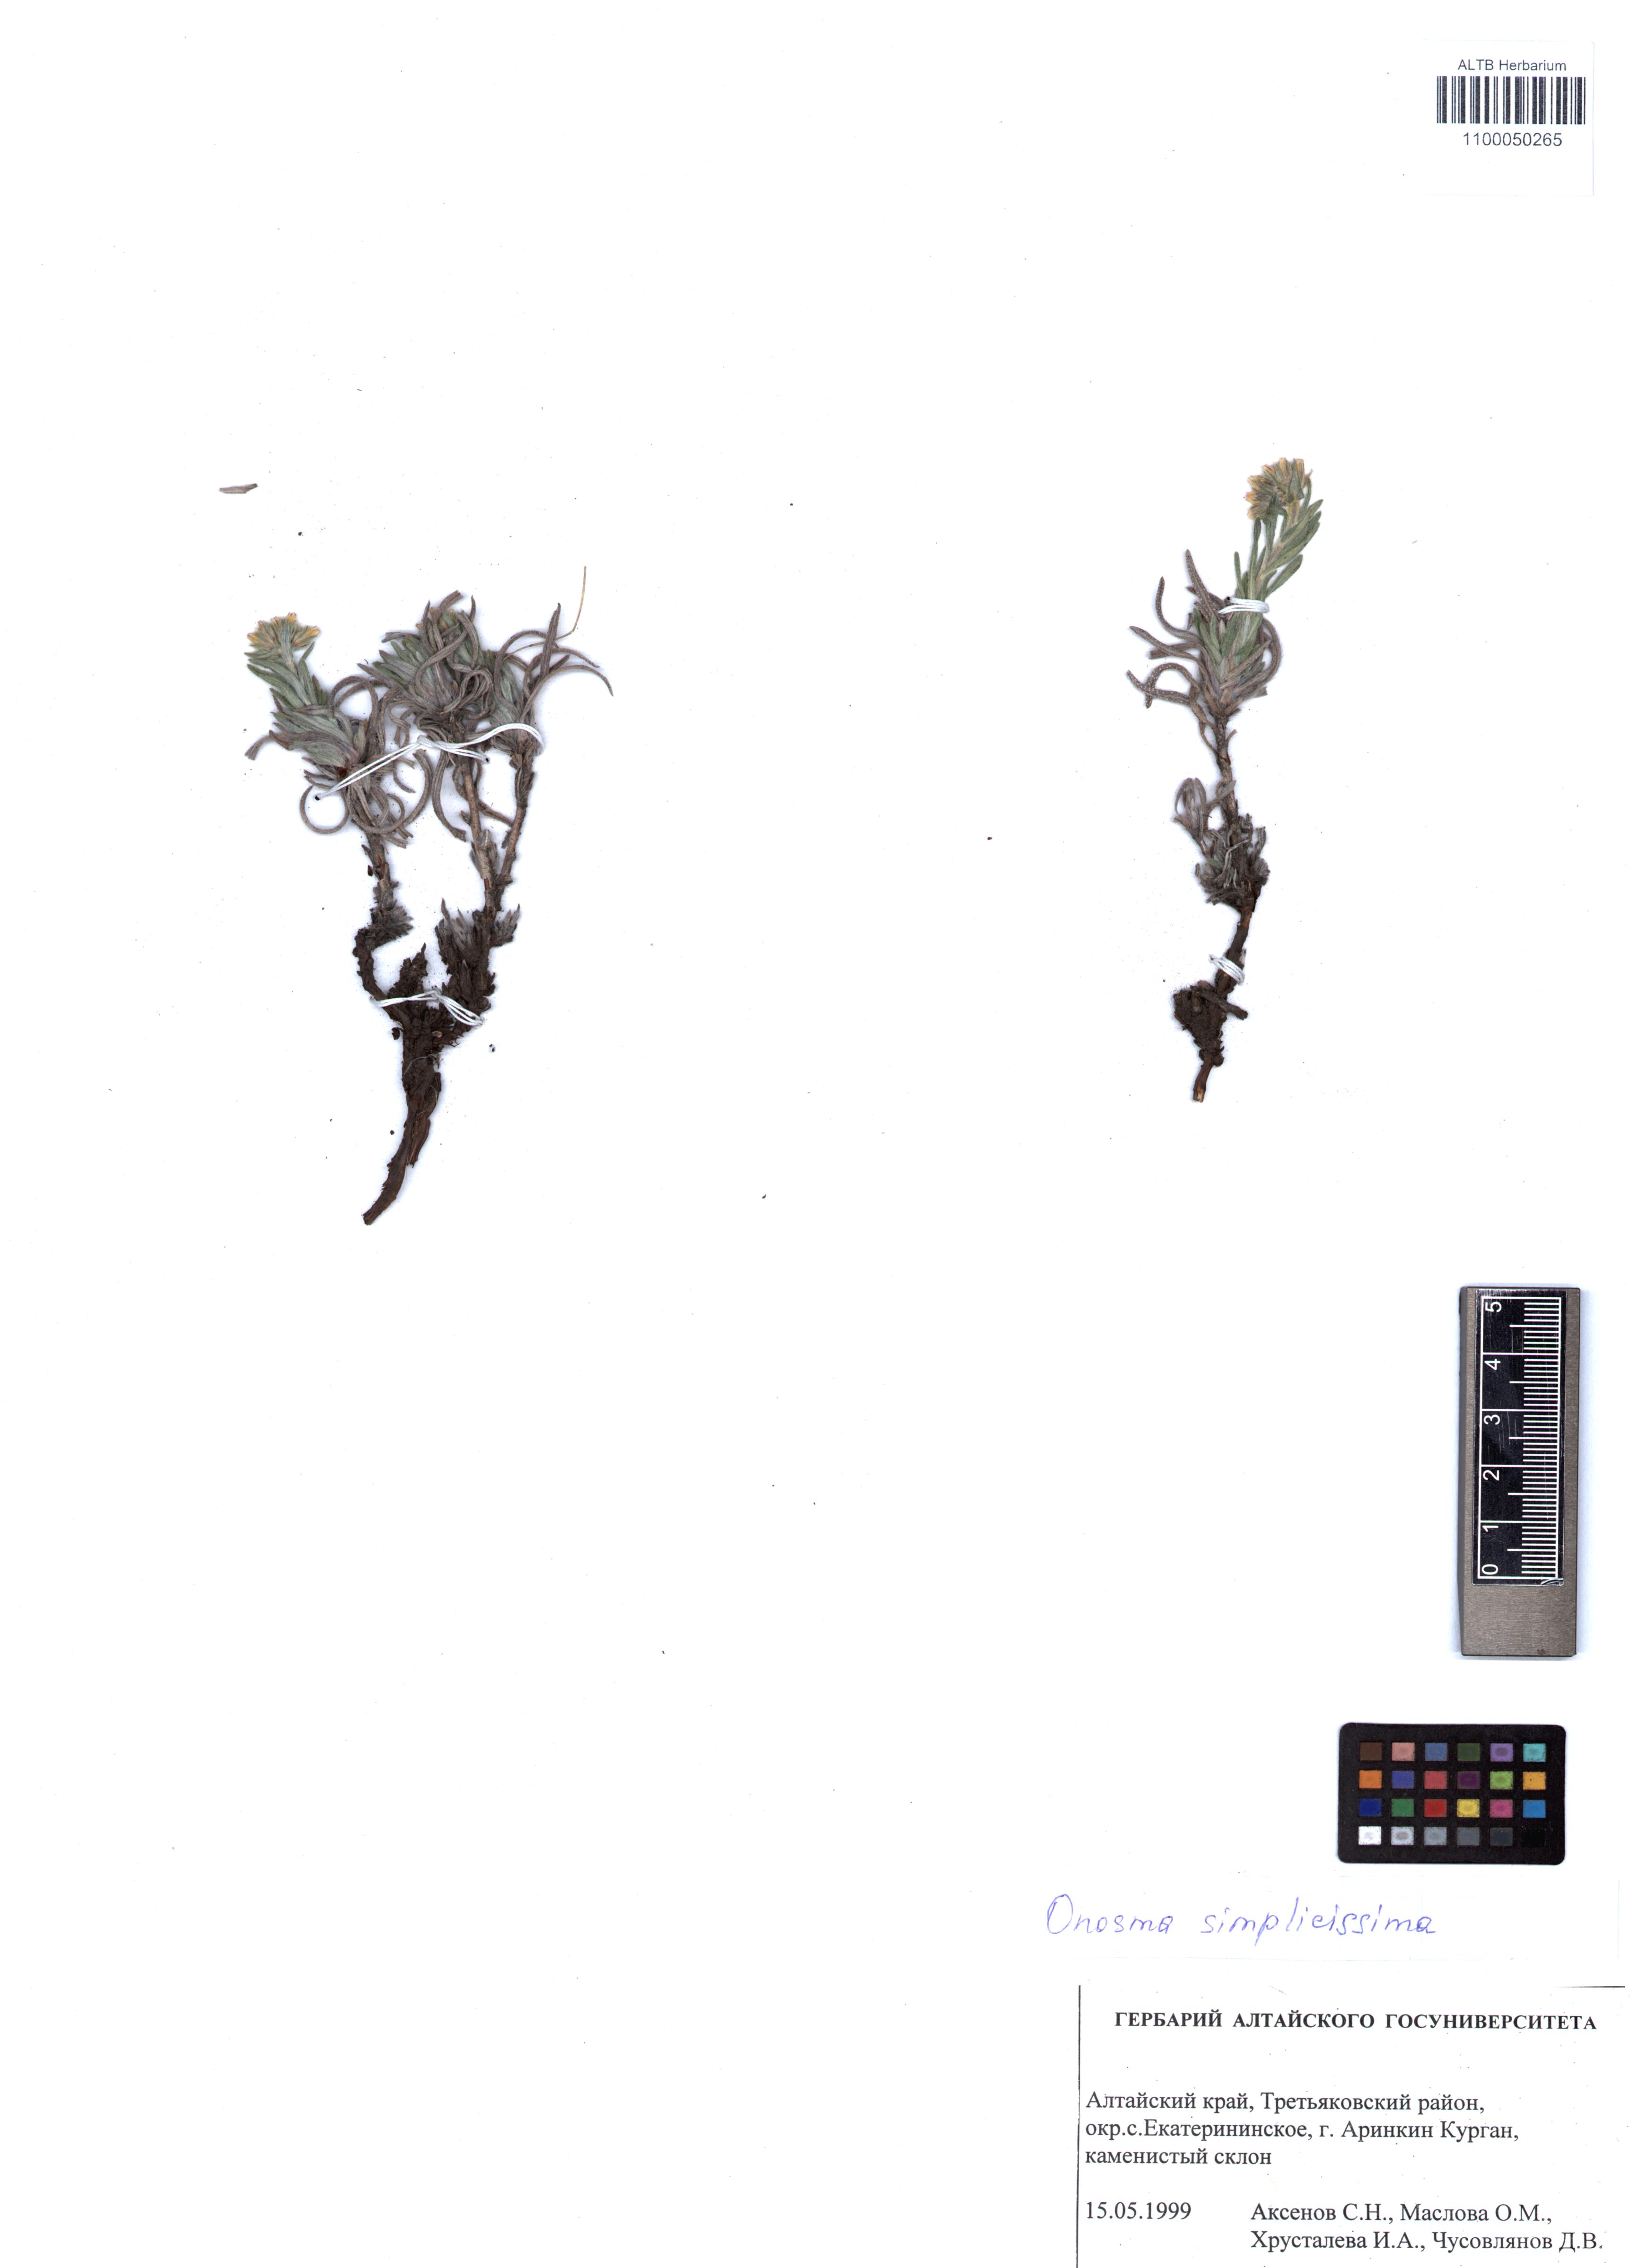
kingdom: Plantae
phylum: Tracheophyta
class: Magnoliopsida
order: Boraginales
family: Boraginaceae
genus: Onosma
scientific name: Onosma simplicissima
